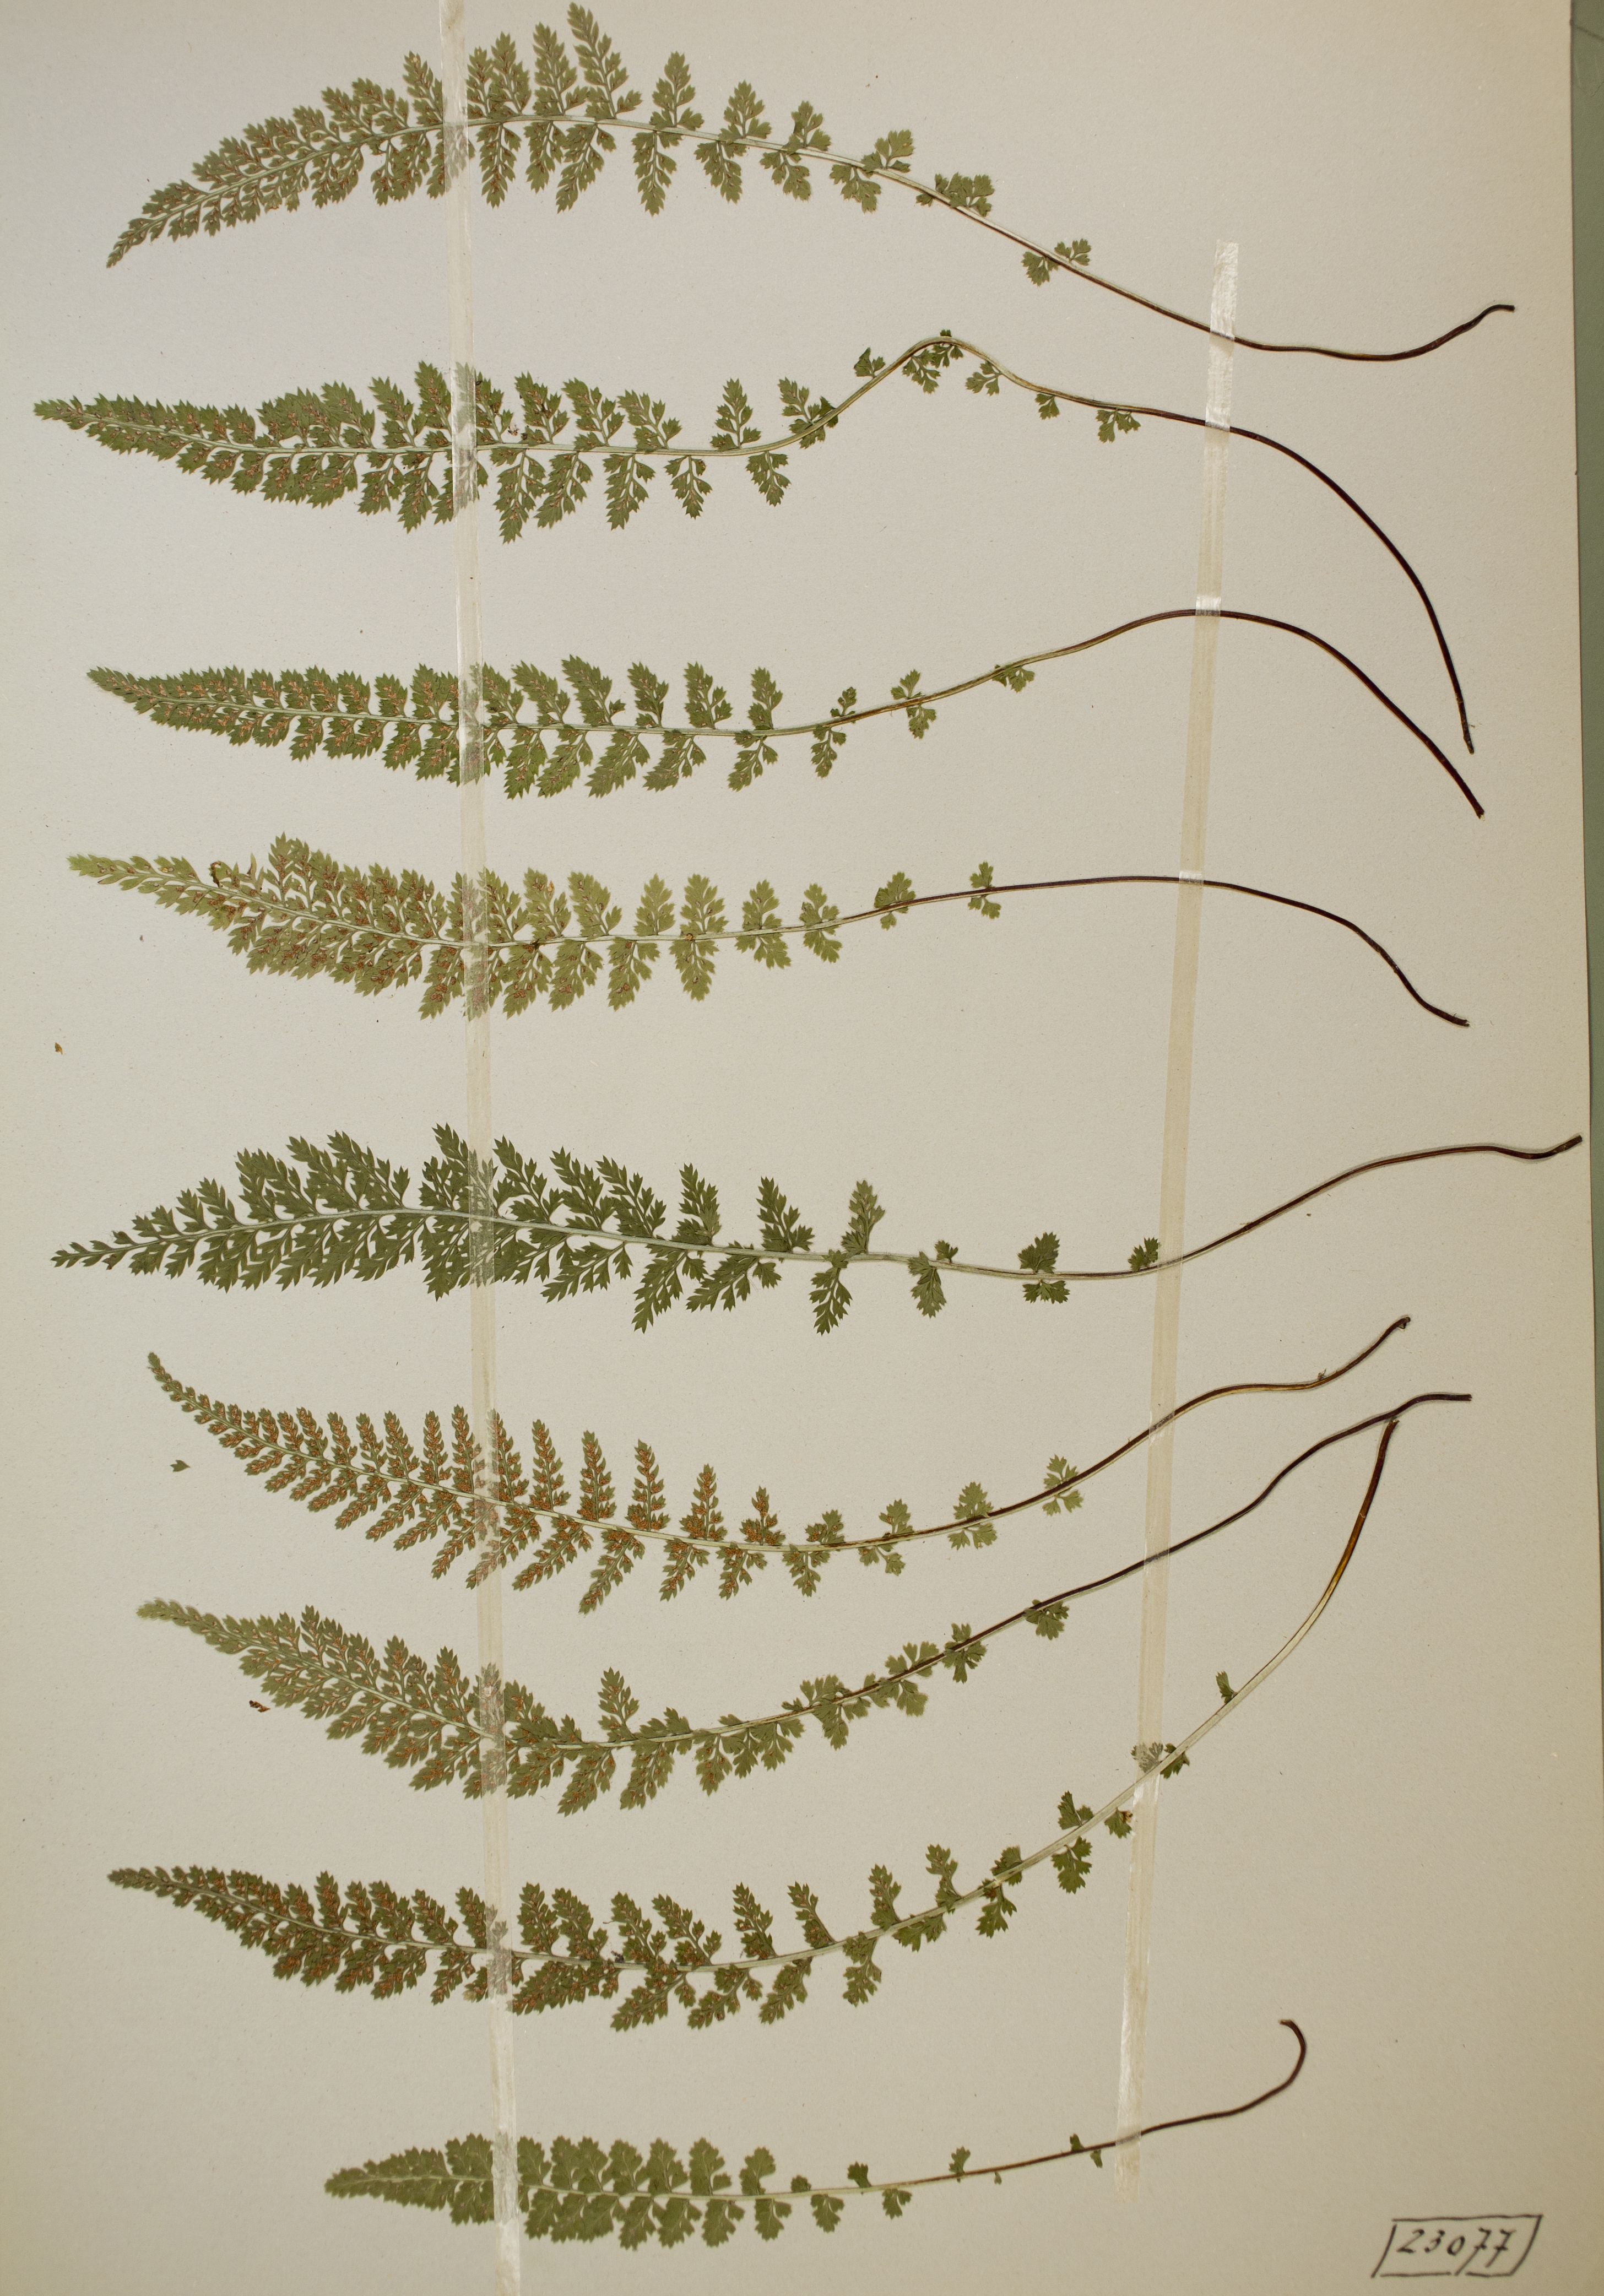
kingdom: Plantae
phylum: Tracheophyta
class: Polypodiopsida
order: Polypodiales
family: Aspleniaceae
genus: Asplenium
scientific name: Asplenium fontanum
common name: Fountain spleenwort
